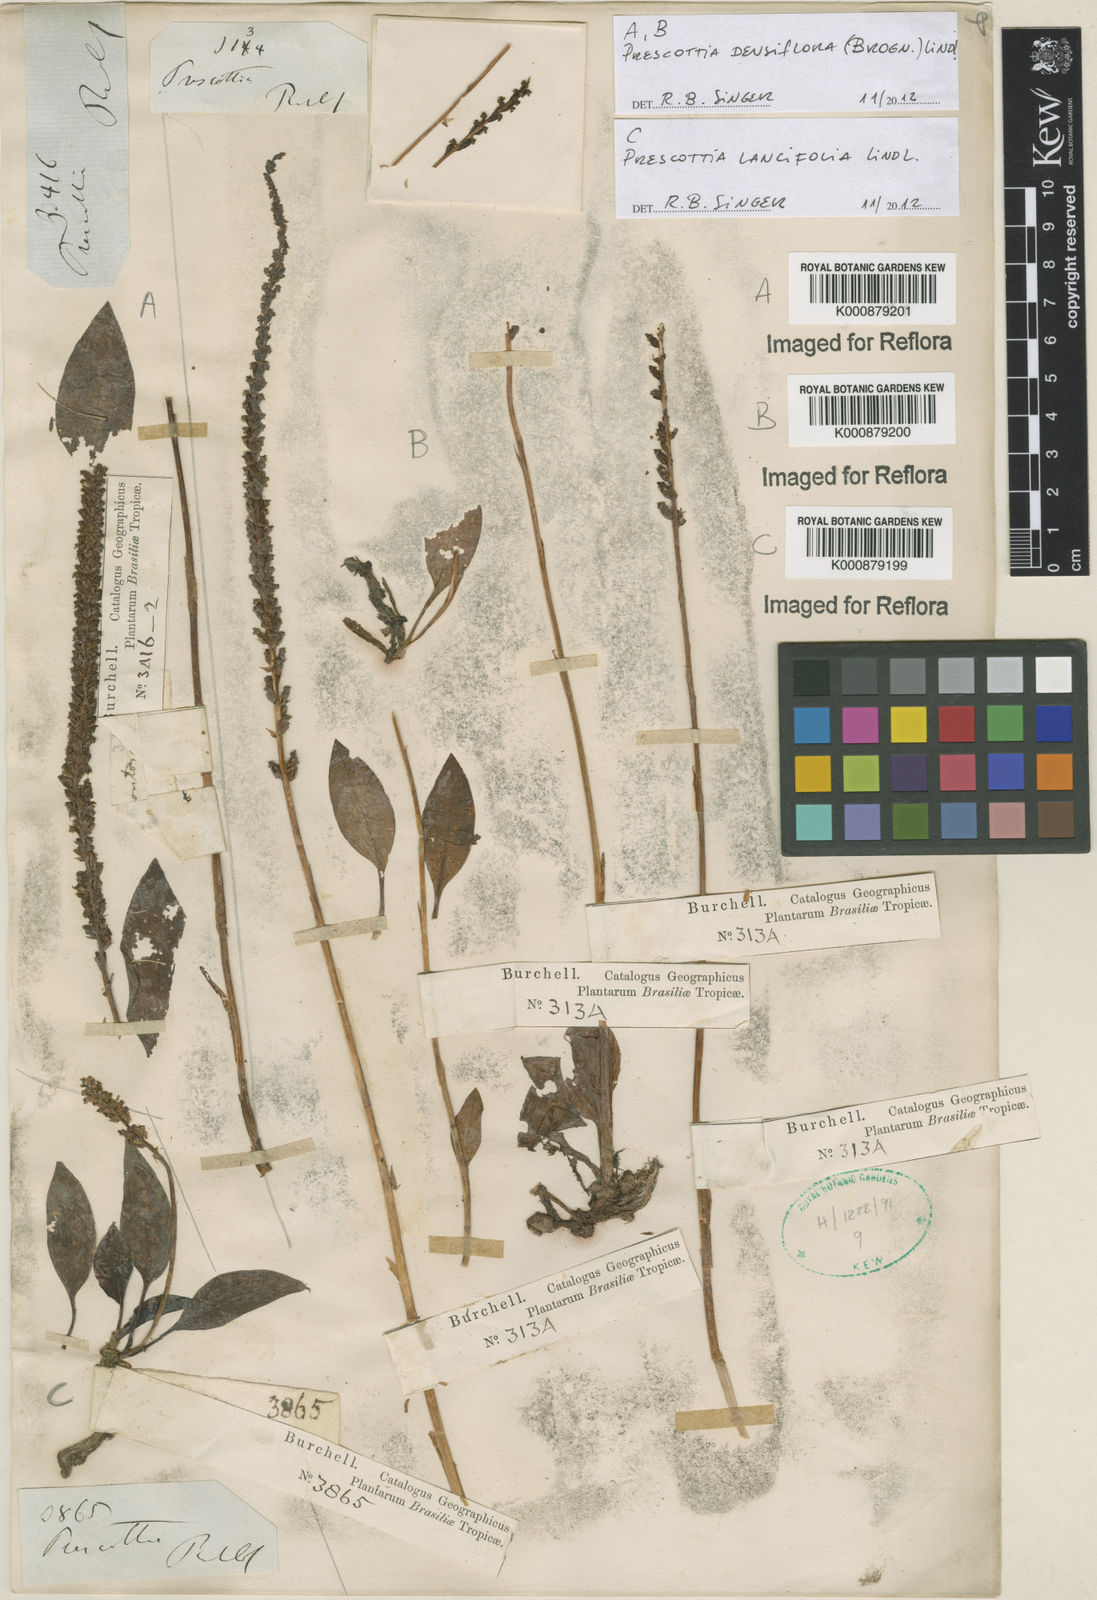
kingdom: Plantae
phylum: Tracheophyta
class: Liliopsida
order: Asparagales
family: Orchidaceae
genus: Prescottia
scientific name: Prescottia densiflora
